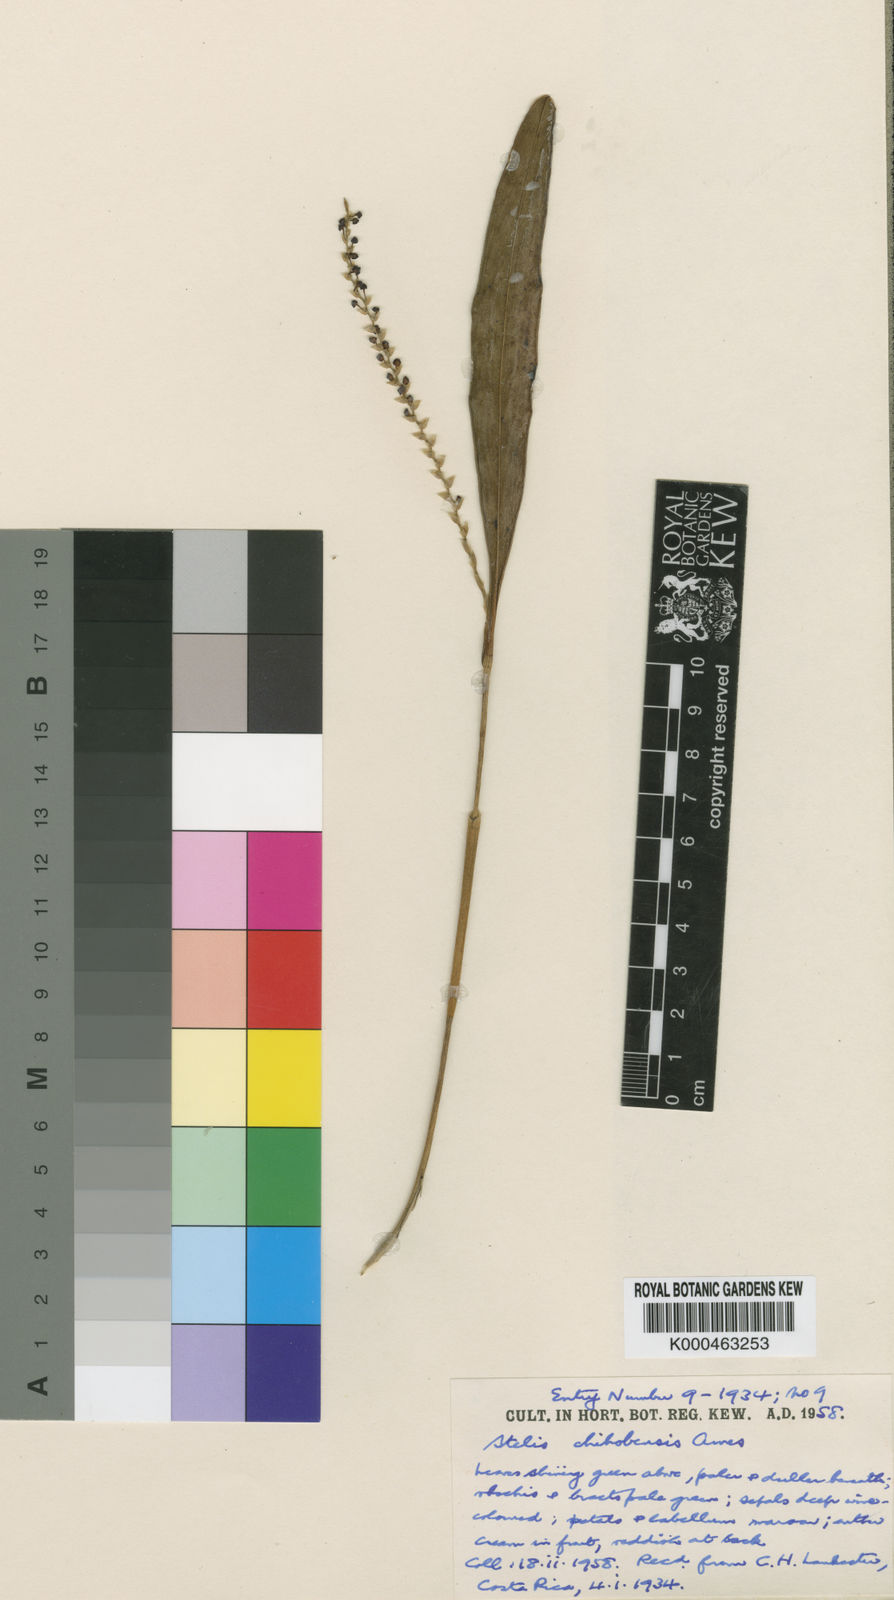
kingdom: Plantae
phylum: Tracheophyta
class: Liliopsida
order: Asparagales
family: Orchidaceae
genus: Stelis
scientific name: Stelis chihobensis
